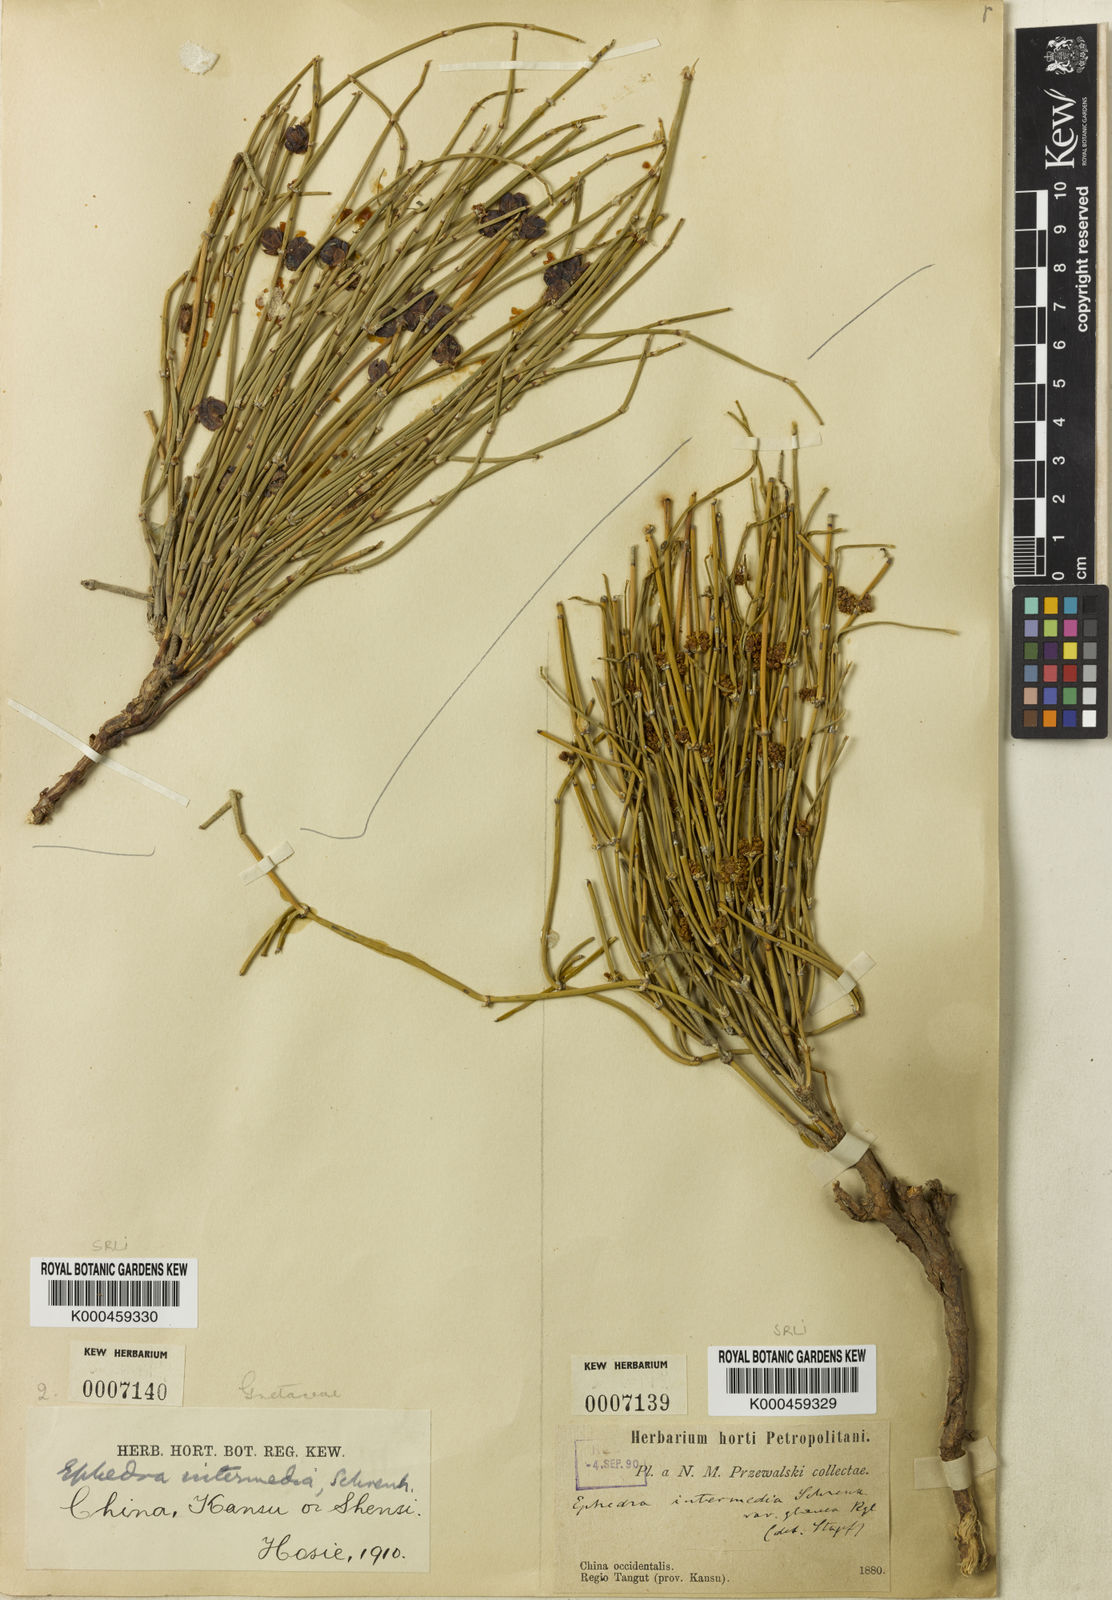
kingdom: Plantae
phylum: Tracheophyta
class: Gnetopsida
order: Ephedrales
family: Ephedraceae
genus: Ephedra
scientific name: Ephedra intermedia
